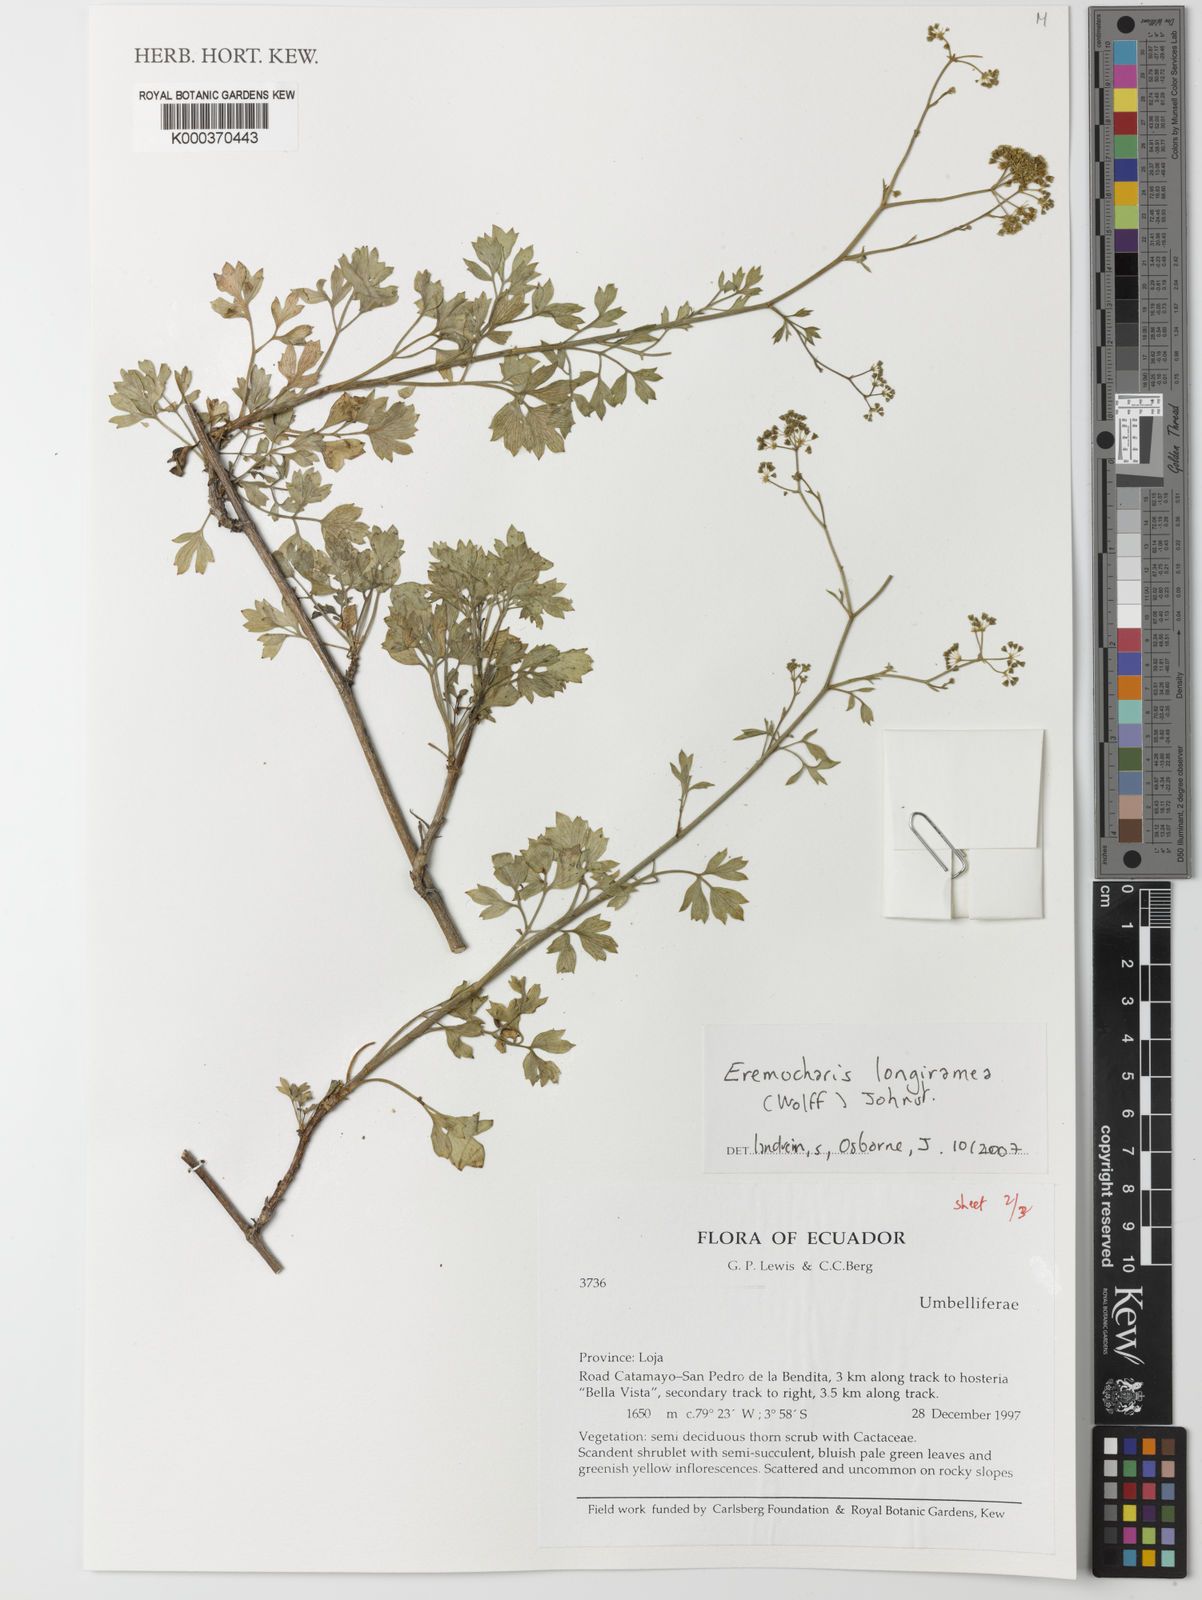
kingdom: Plantae
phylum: Tracheophyta
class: Magnoliopsida
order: Apiales
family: Apiaceae
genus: Eremocharis
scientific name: Eremocharis longiramea
